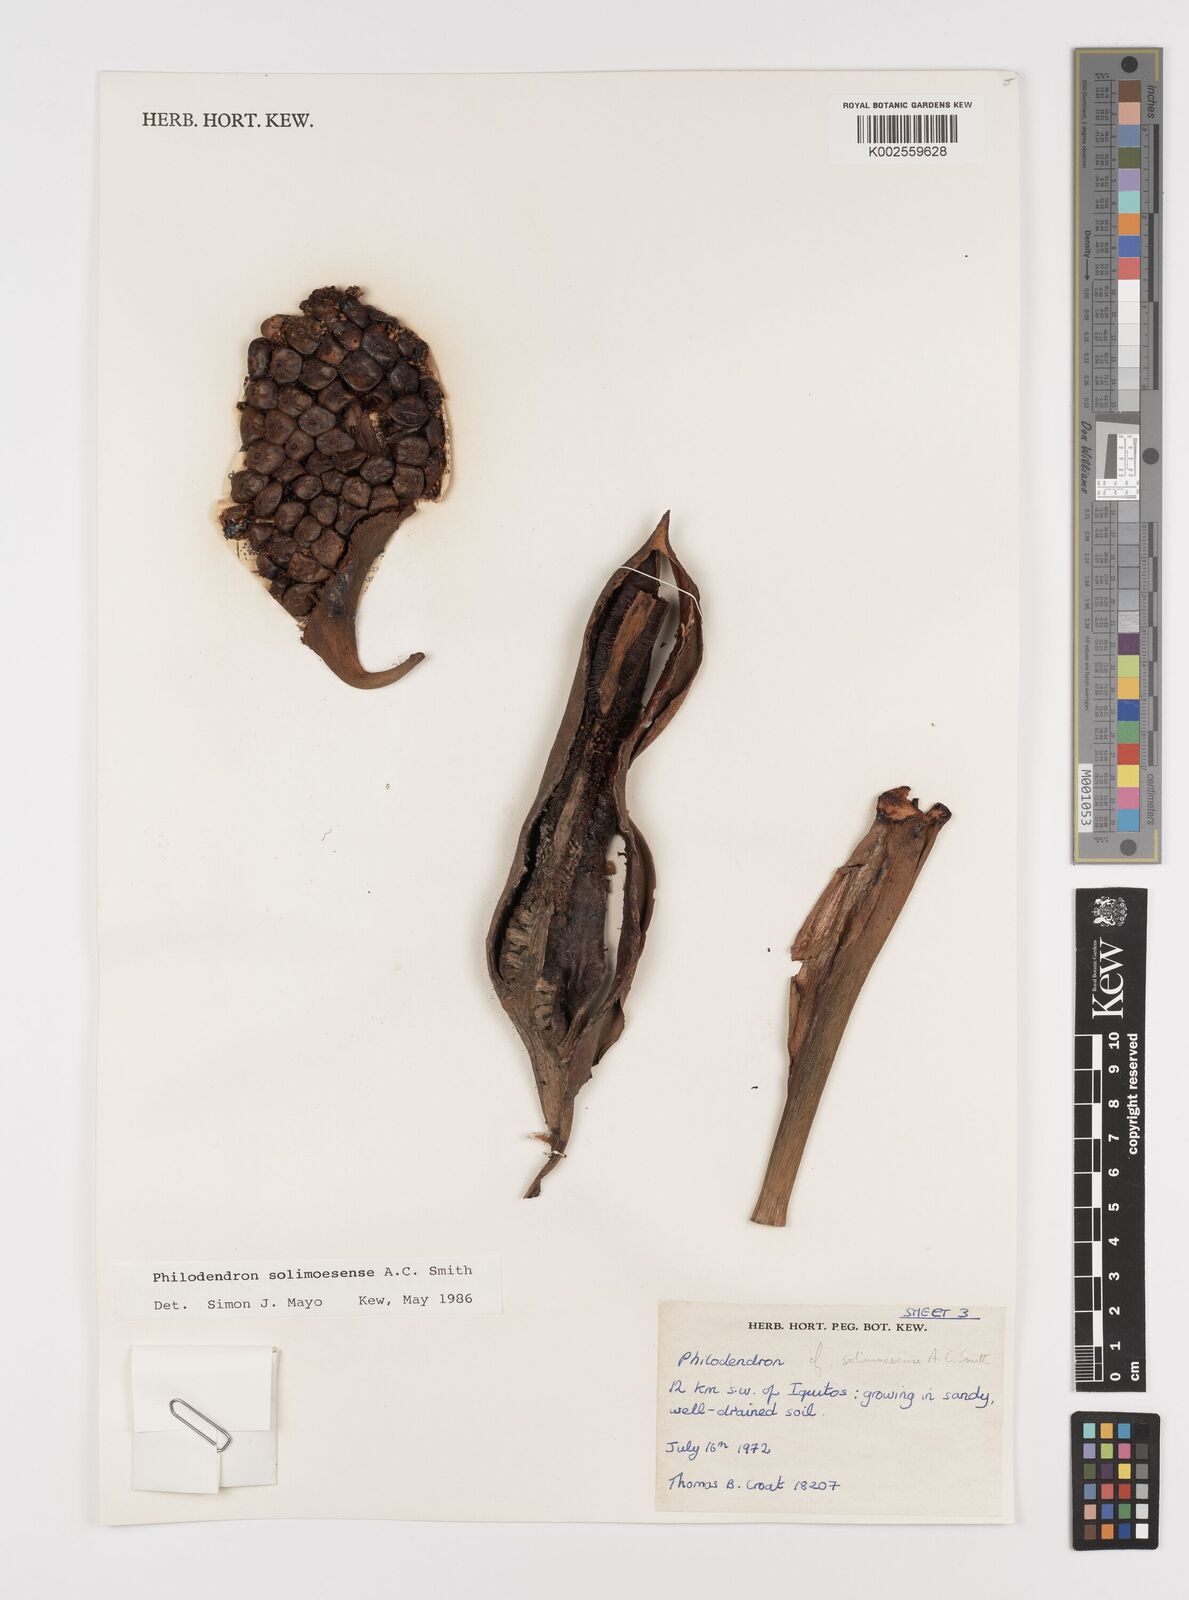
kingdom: Plantae
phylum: Tracheophyta
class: Liliopsida
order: Alismatales
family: Araceae
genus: Thaumatophyllum
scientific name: Thaumatophyllum solimoesense
